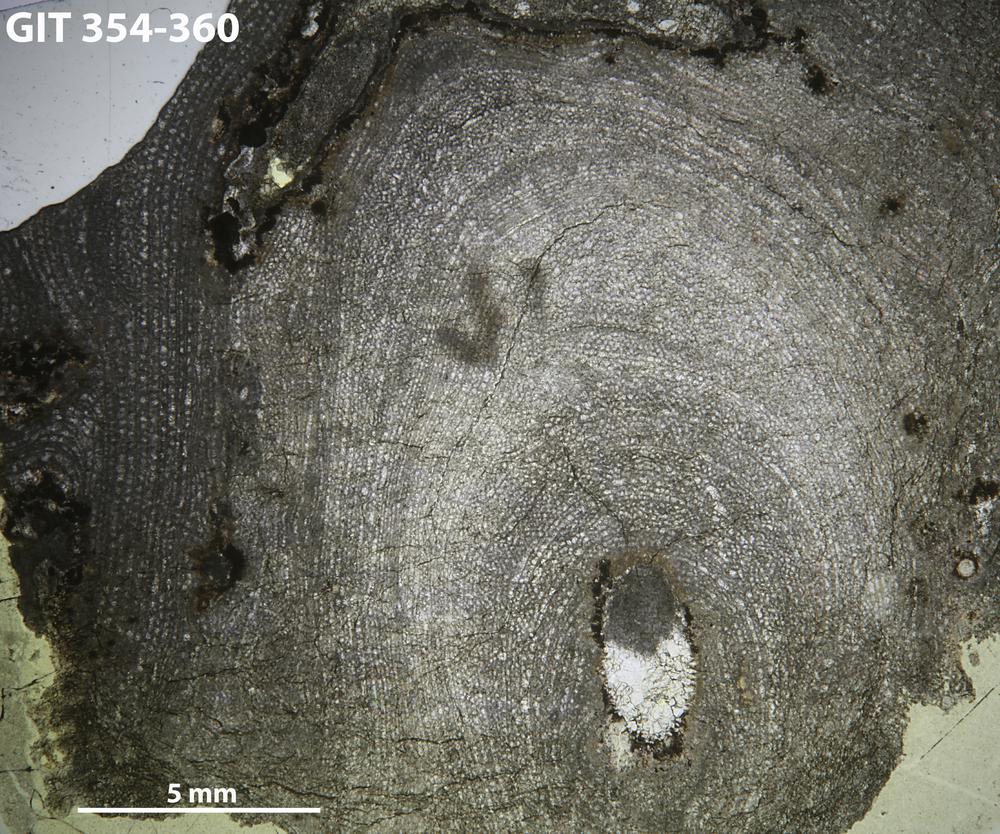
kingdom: Animalia
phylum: Porifera
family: Tienodictyidae
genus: Intexodictyon
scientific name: Intexodictyon avitum
